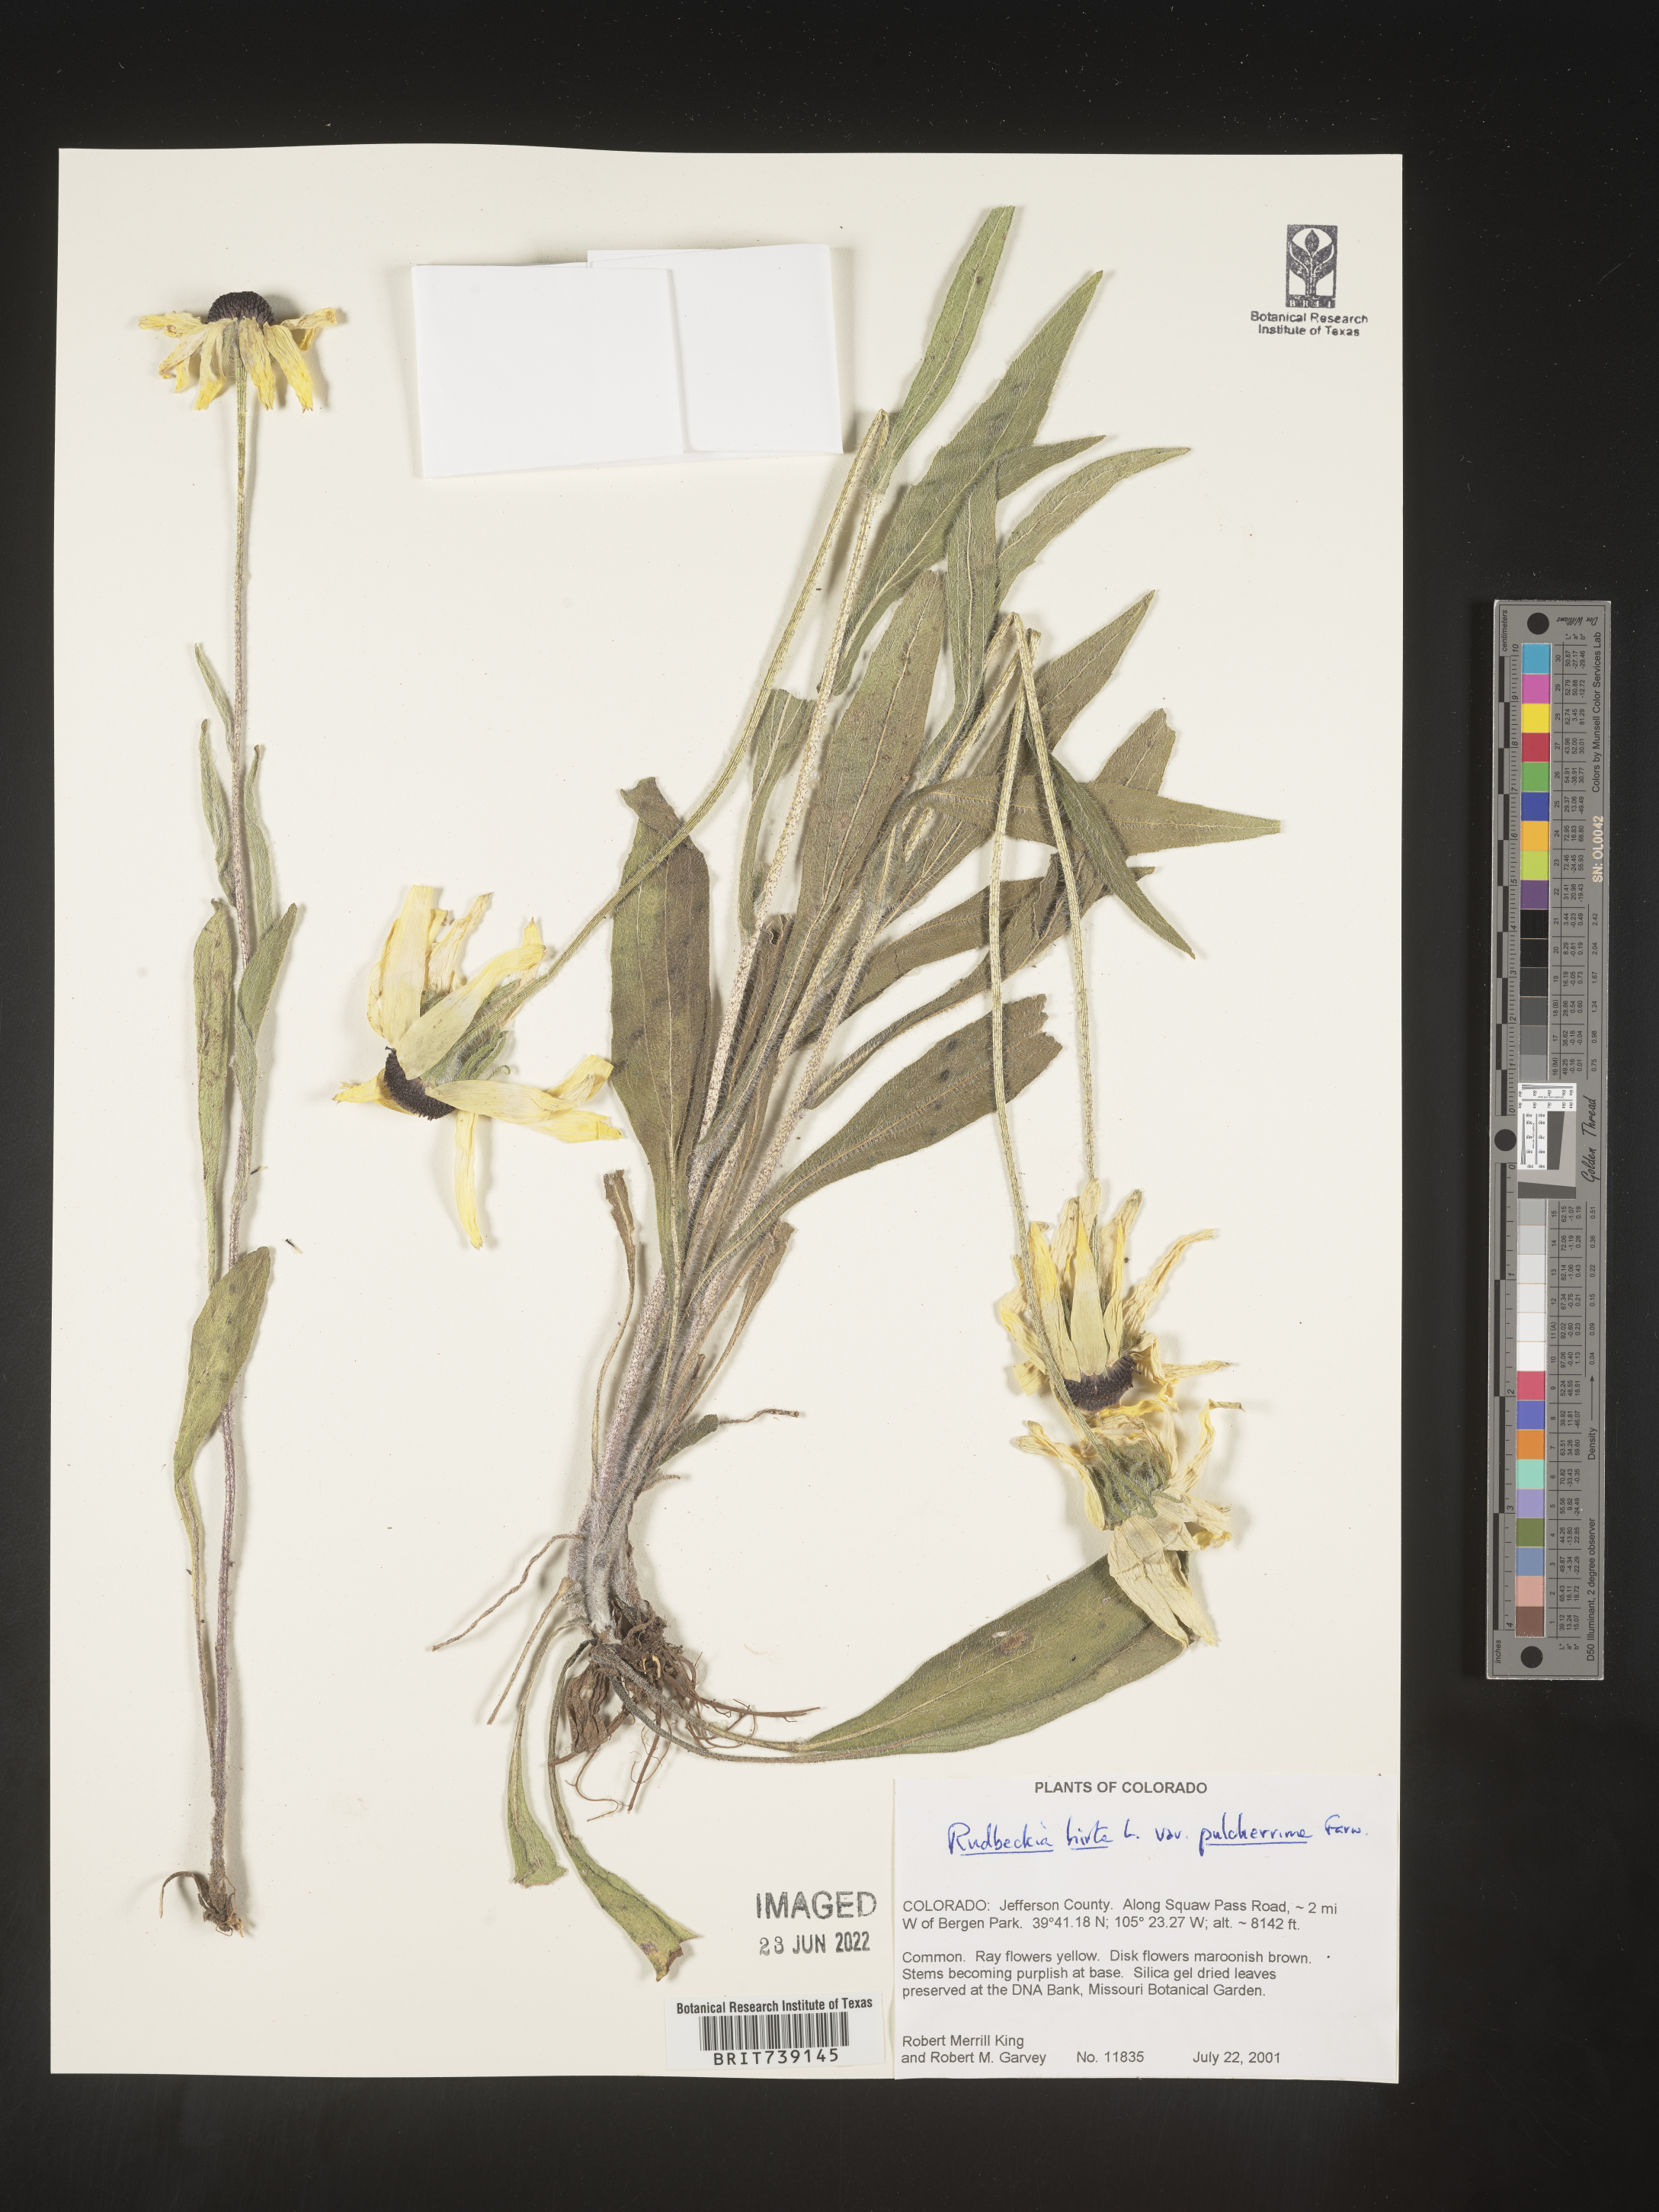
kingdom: Plantae
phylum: Tracheophyta
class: Magnoliopsida
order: Asterales
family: Asteraceae
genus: Rudbeckia
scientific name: Rudbeckia hirta
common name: Black-eyed-susan
